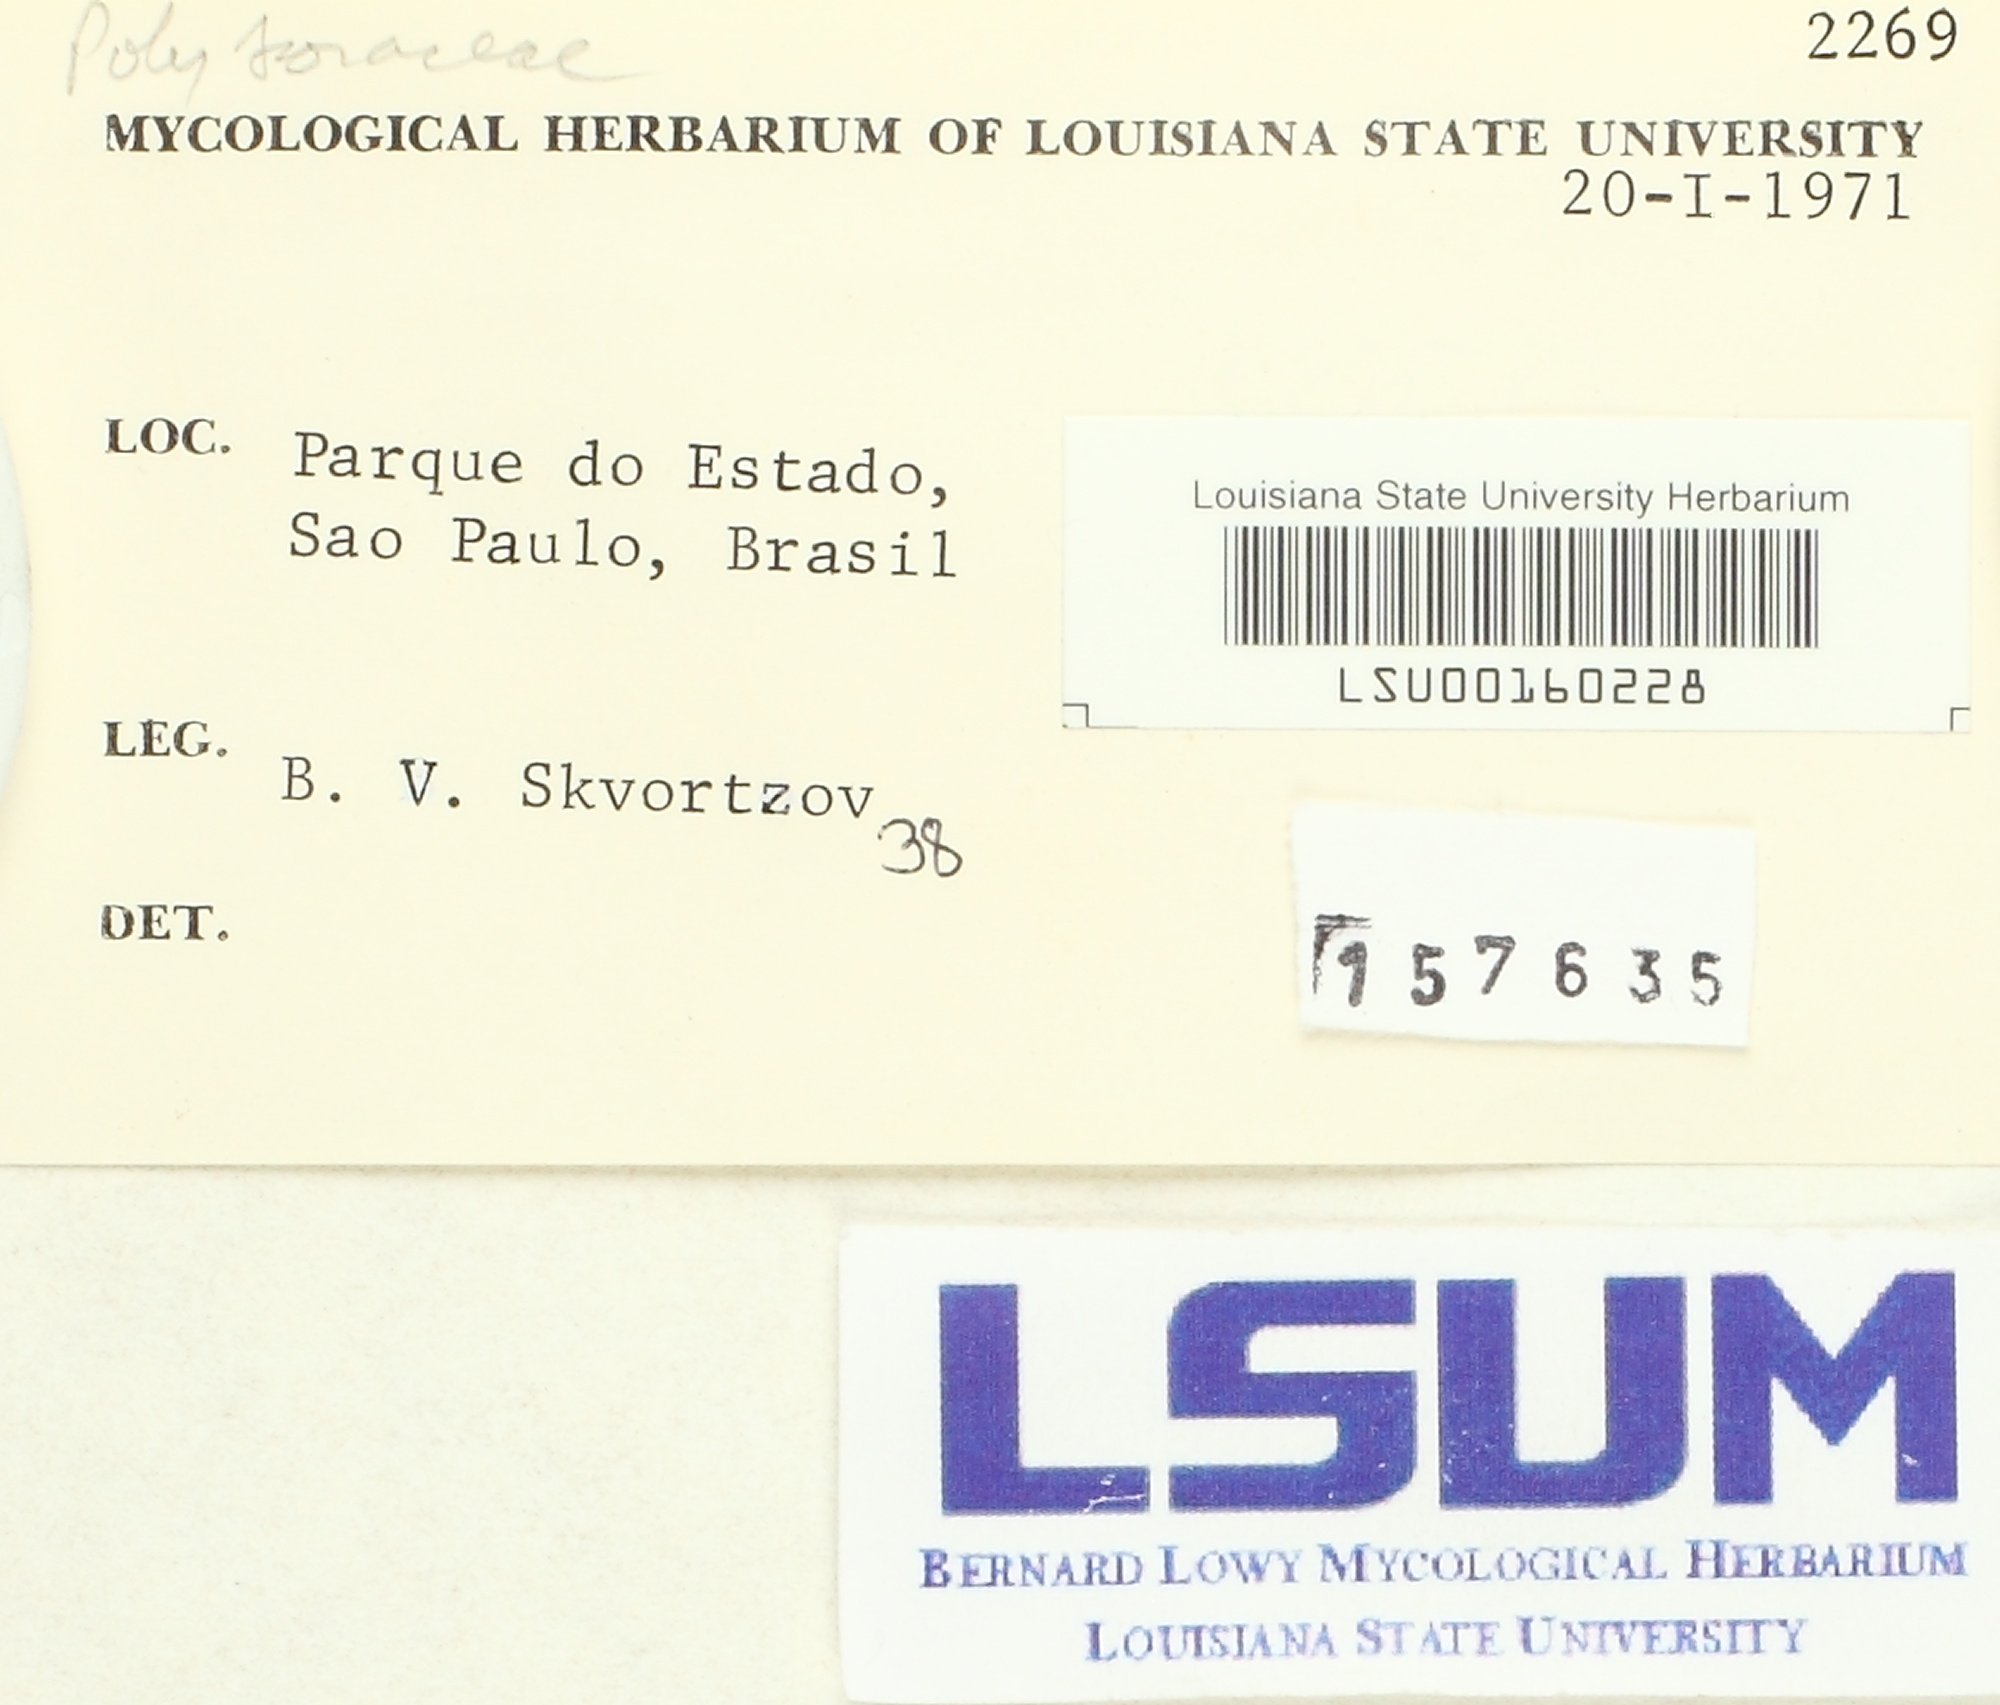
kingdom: Fungi
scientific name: Fungi
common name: Fungi
